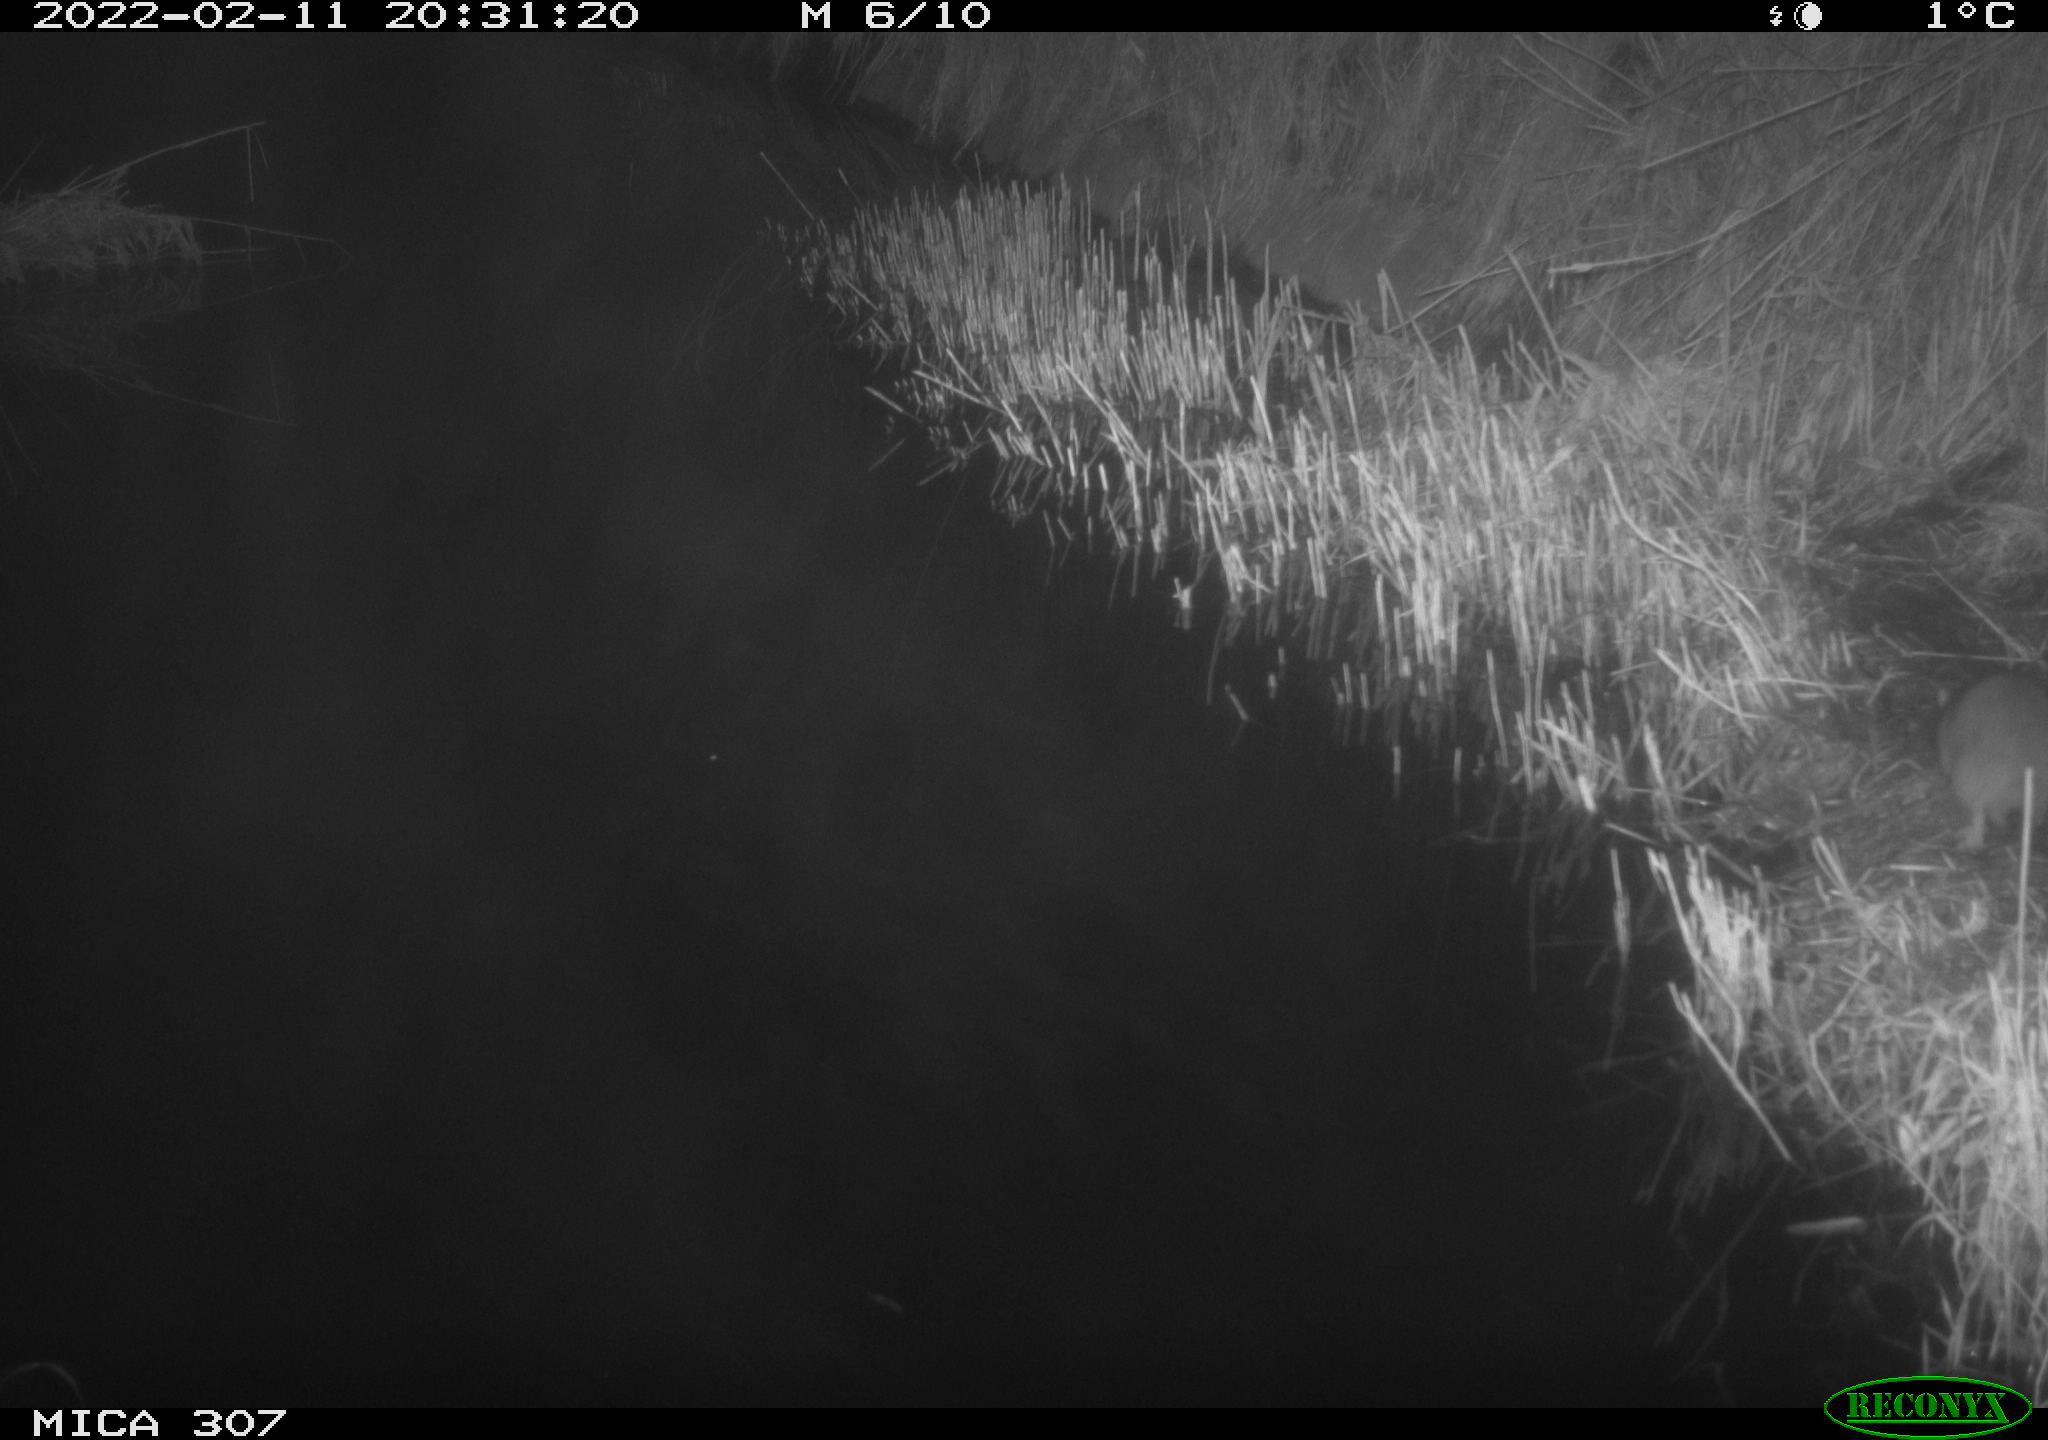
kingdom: Animalia
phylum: Chordata
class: Mammalia
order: Rodentia
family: Muridae
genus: Rattus
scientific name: Rattus norvegicus
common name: Brown rat
